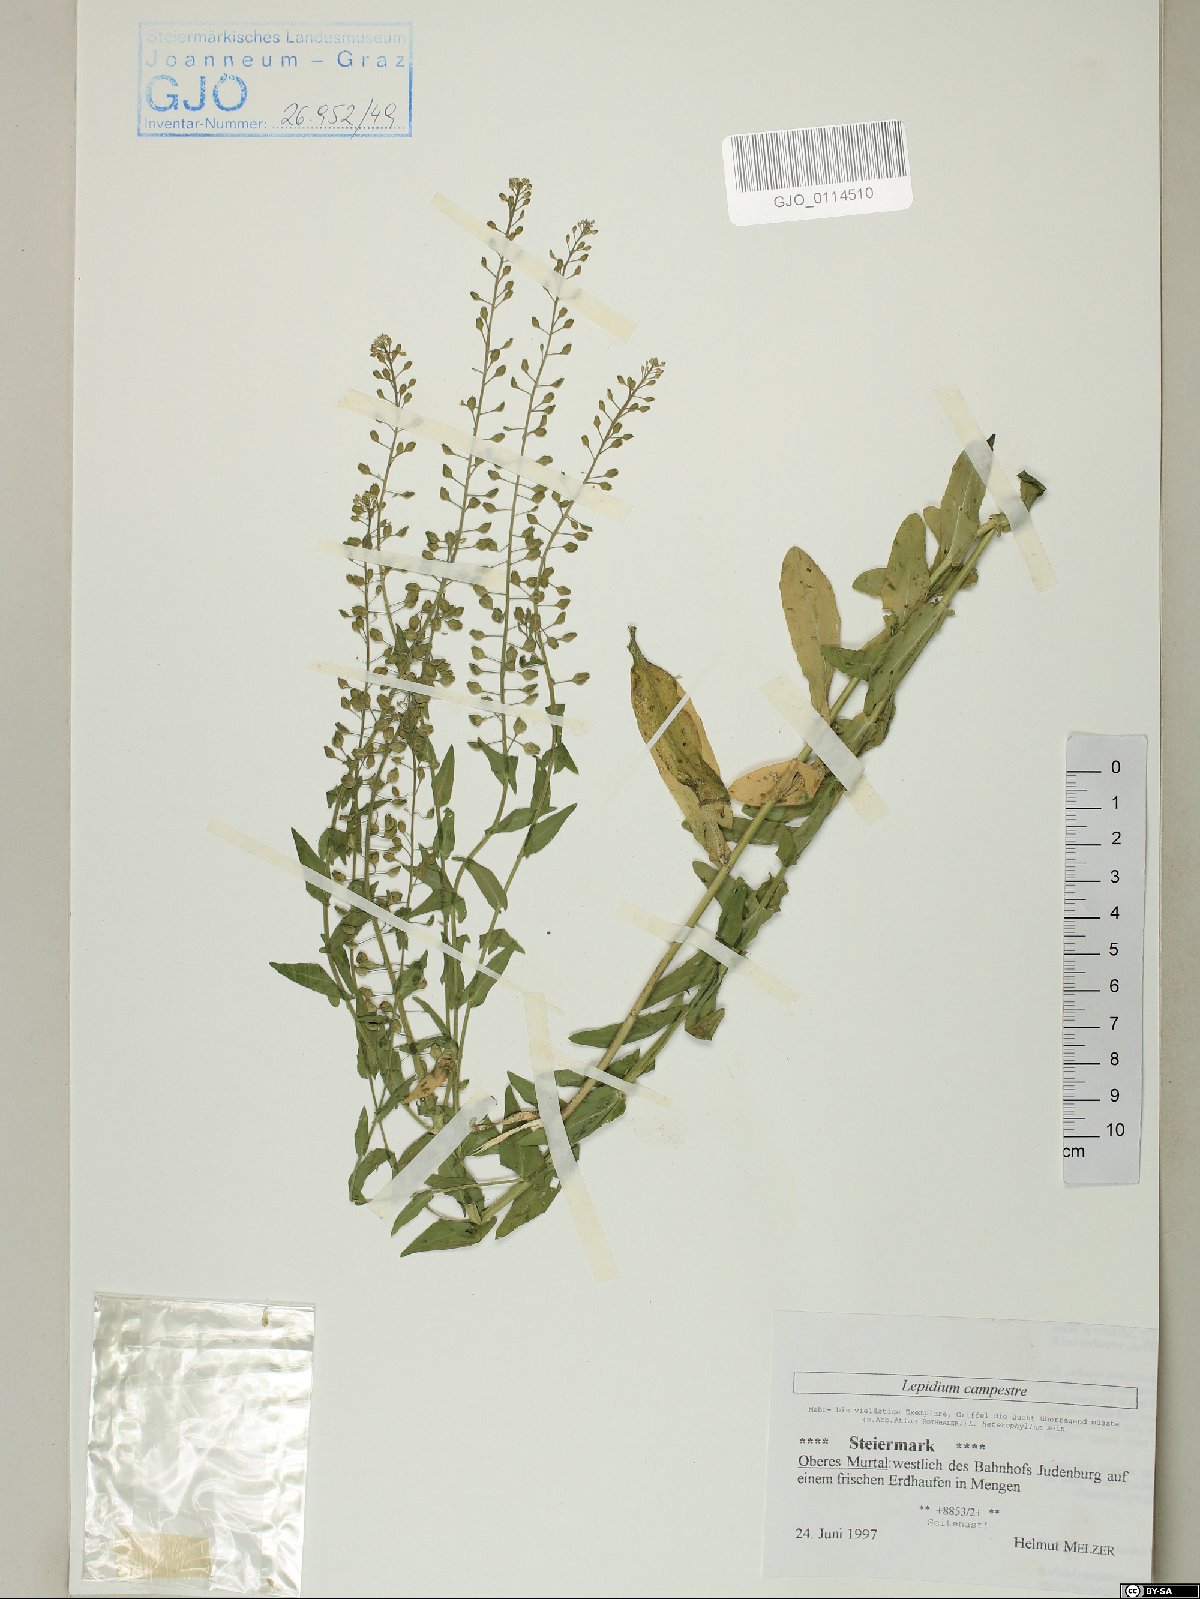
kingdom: Plantae
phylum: Tracheophyta
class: Magnoliopsida
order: Brassicales
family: Brassicaceae
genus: Lepidium
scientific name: Lepidium campestre
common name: Field pepperwort
